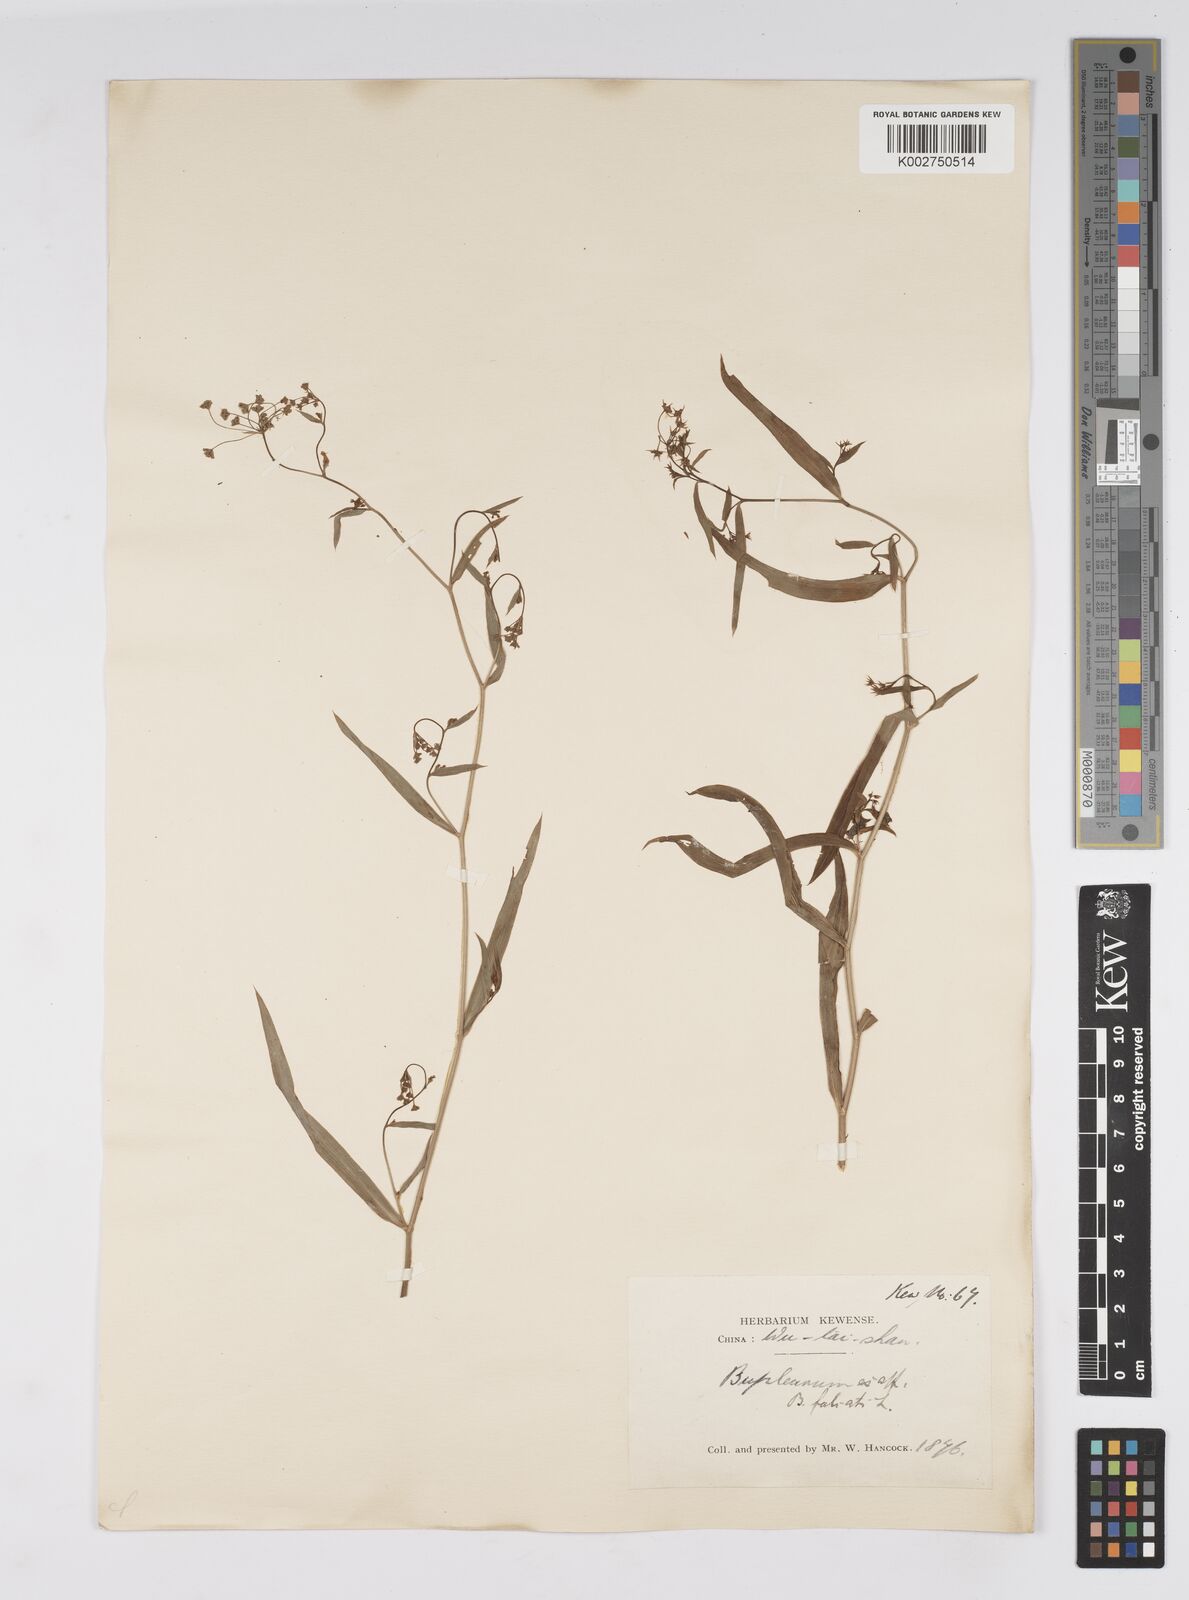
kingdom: Plantae
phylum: Tracheophyta
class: Magnoliopsida
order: Apiales
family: Apiaceae
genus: Bupleurum
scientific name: Bupleurum krylovianum
